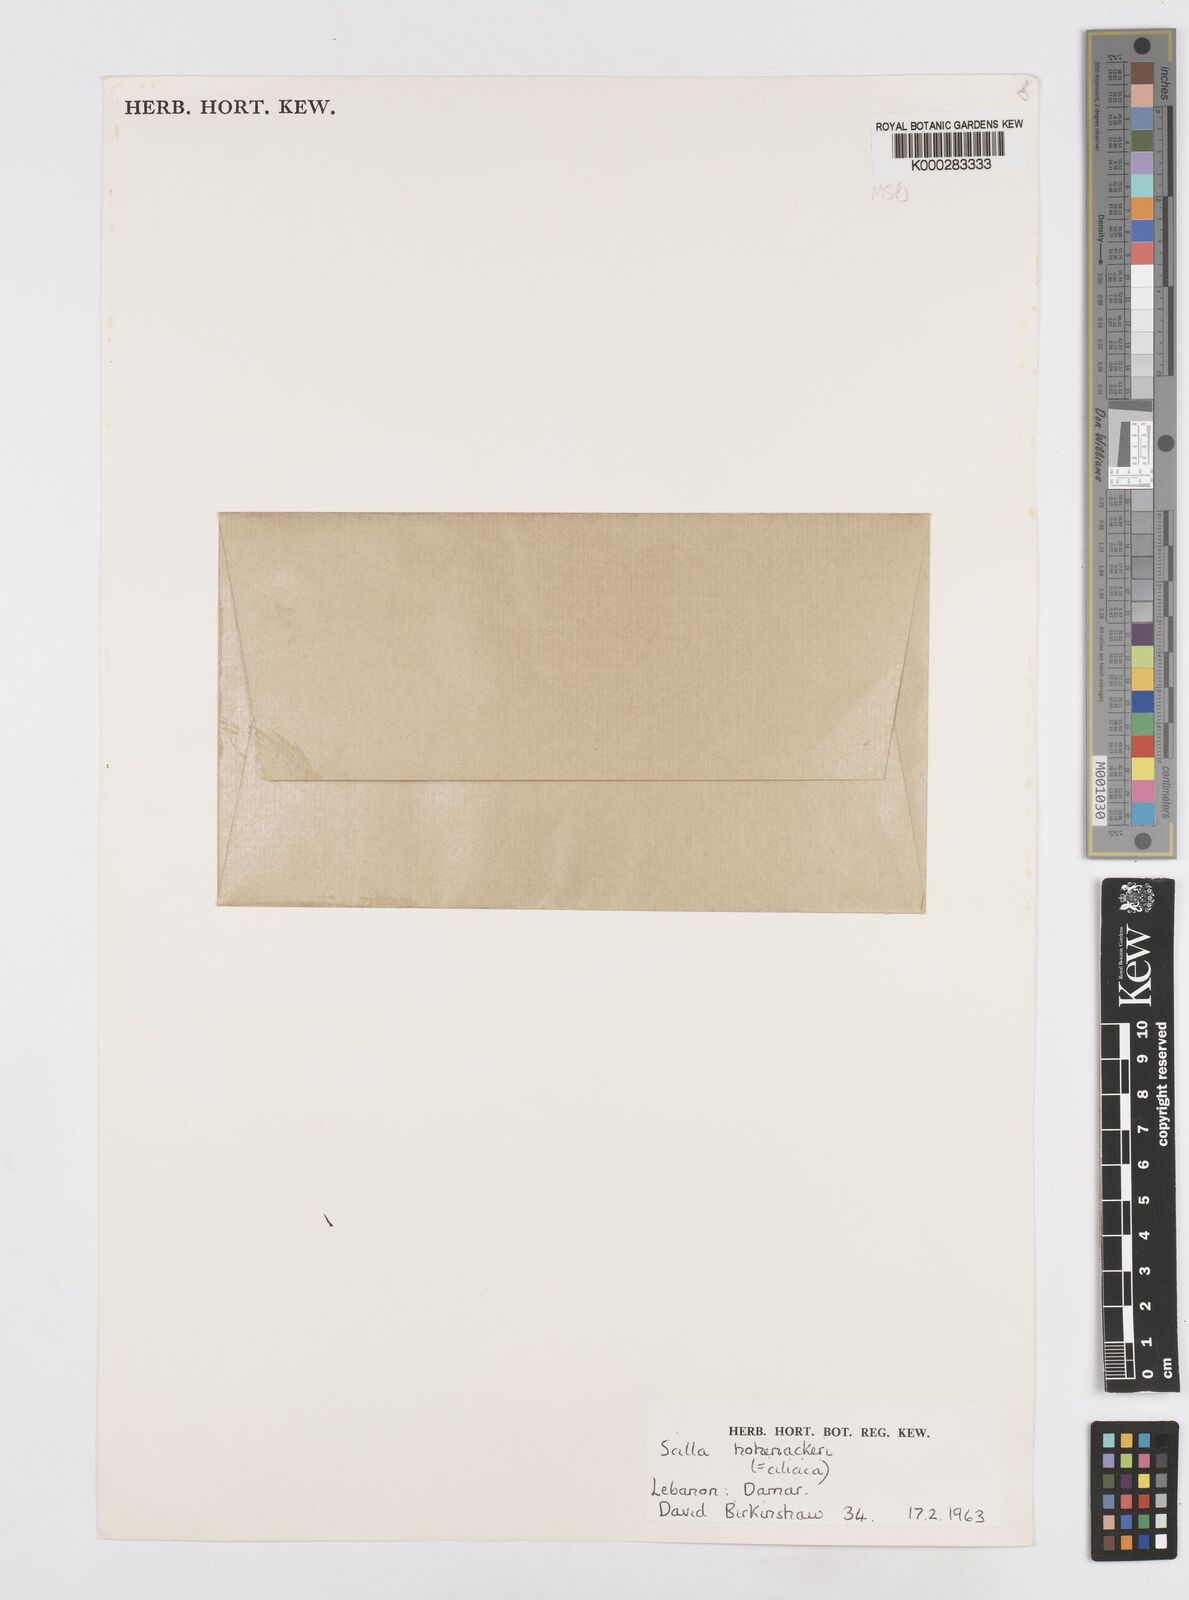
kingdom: Plantae
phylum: Tracheophyta
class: Liliopsida
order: Asparagales
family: Asparagaceae
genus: Scilla
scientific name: Scilla cilicica
